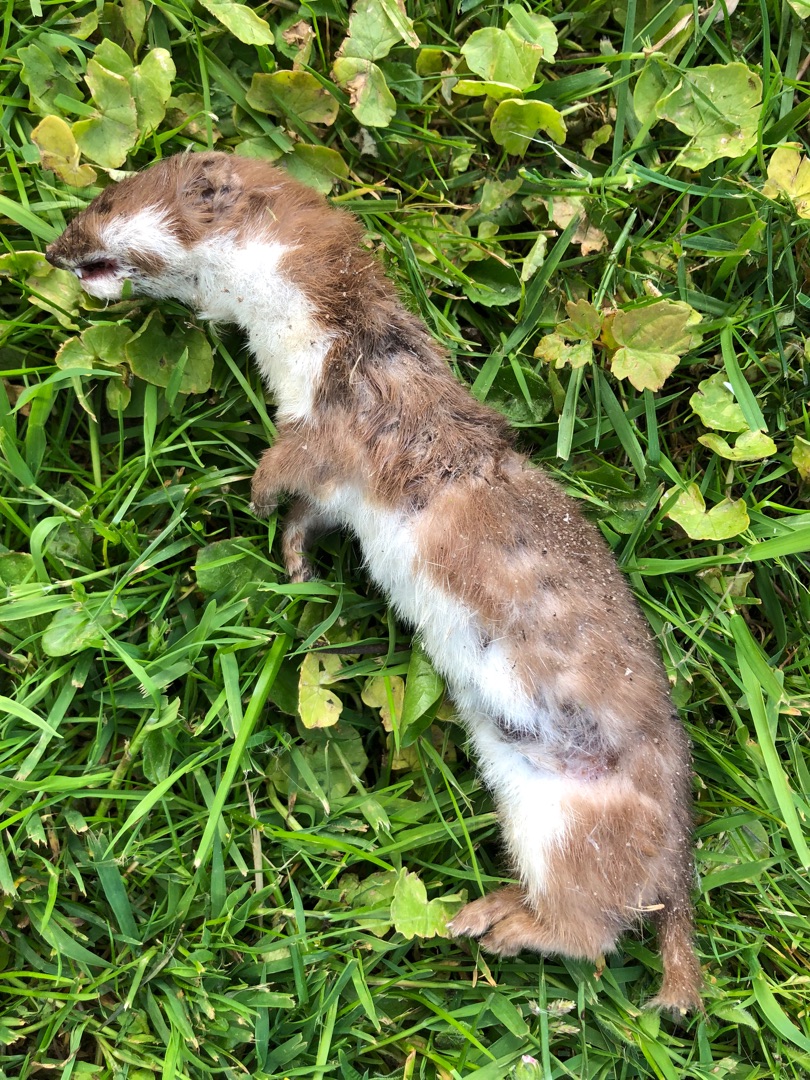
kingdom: Animalia
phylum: Chordata
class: Mammalia
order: Carnivora
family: Mustelidae
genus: Mustela
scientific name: Mustela nivalis
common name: Brud
